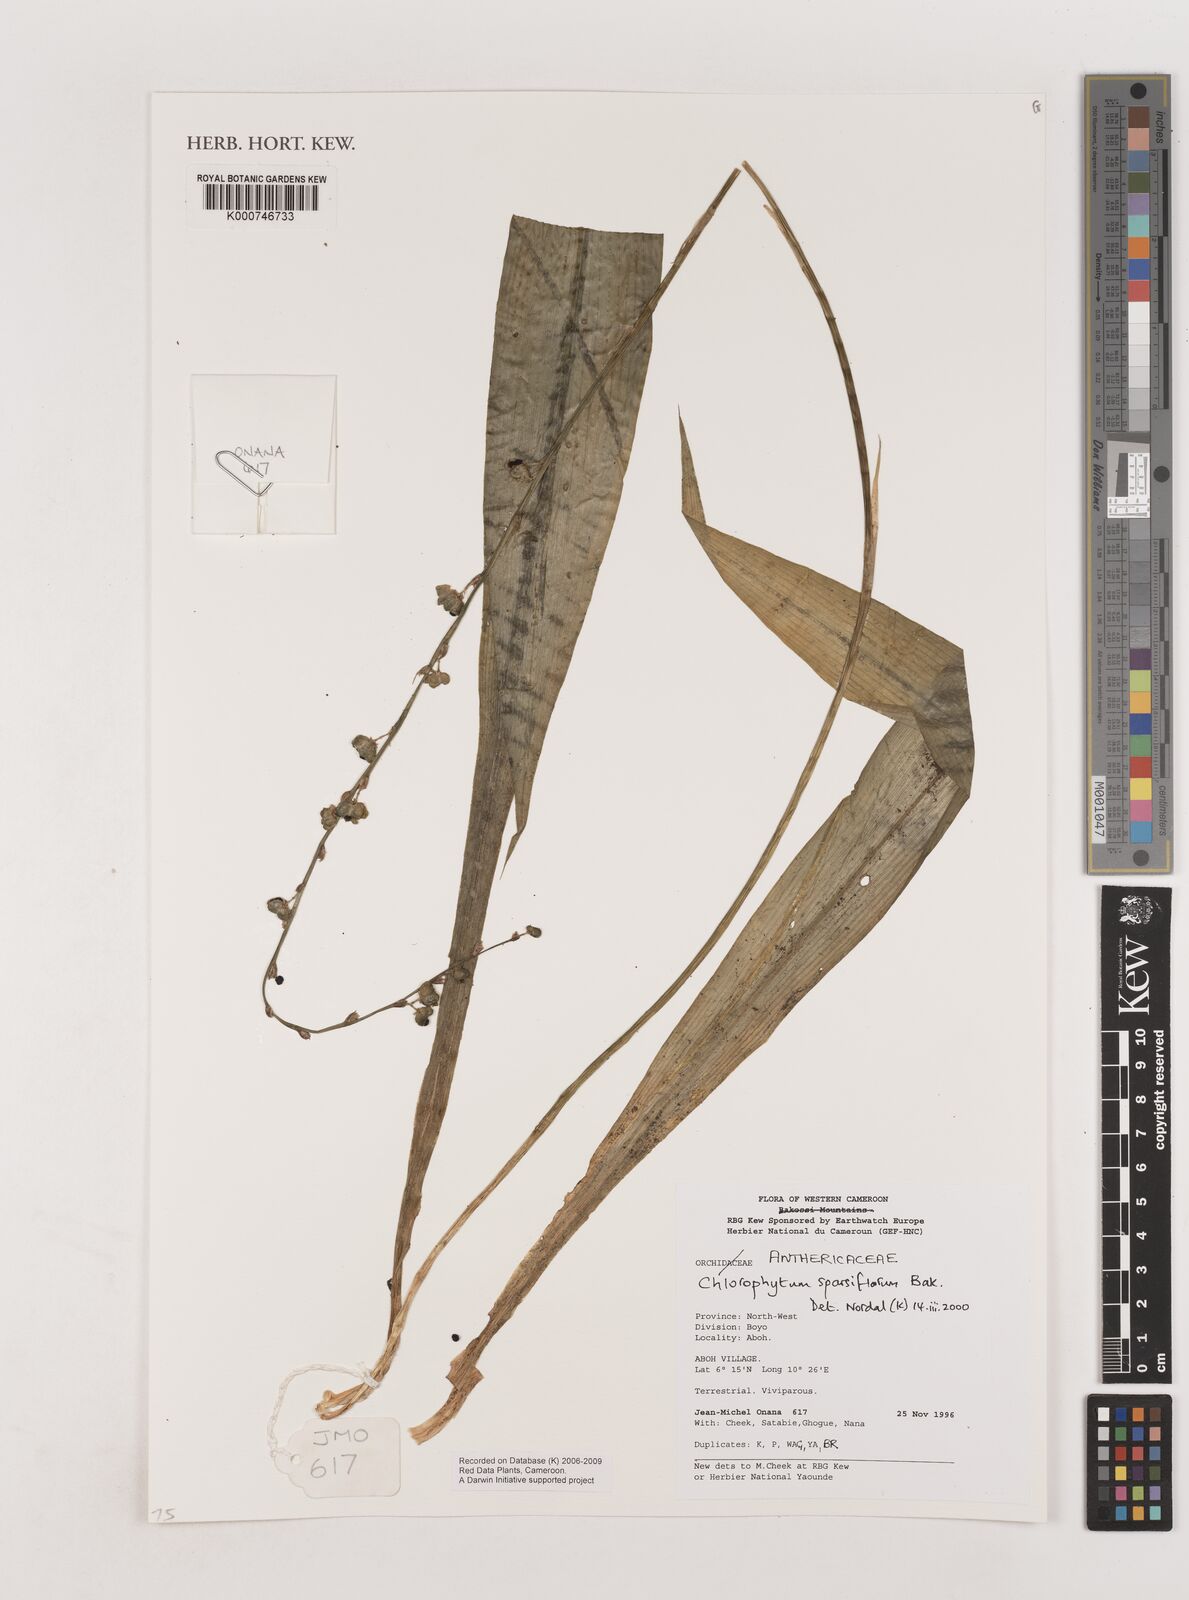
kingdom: Plantae
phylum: Tracheophyta
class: Liliopsida
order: Asparagales
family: Asparagaceae
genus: Chlorophytum
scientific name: Chlorophytum sparsiflorum
